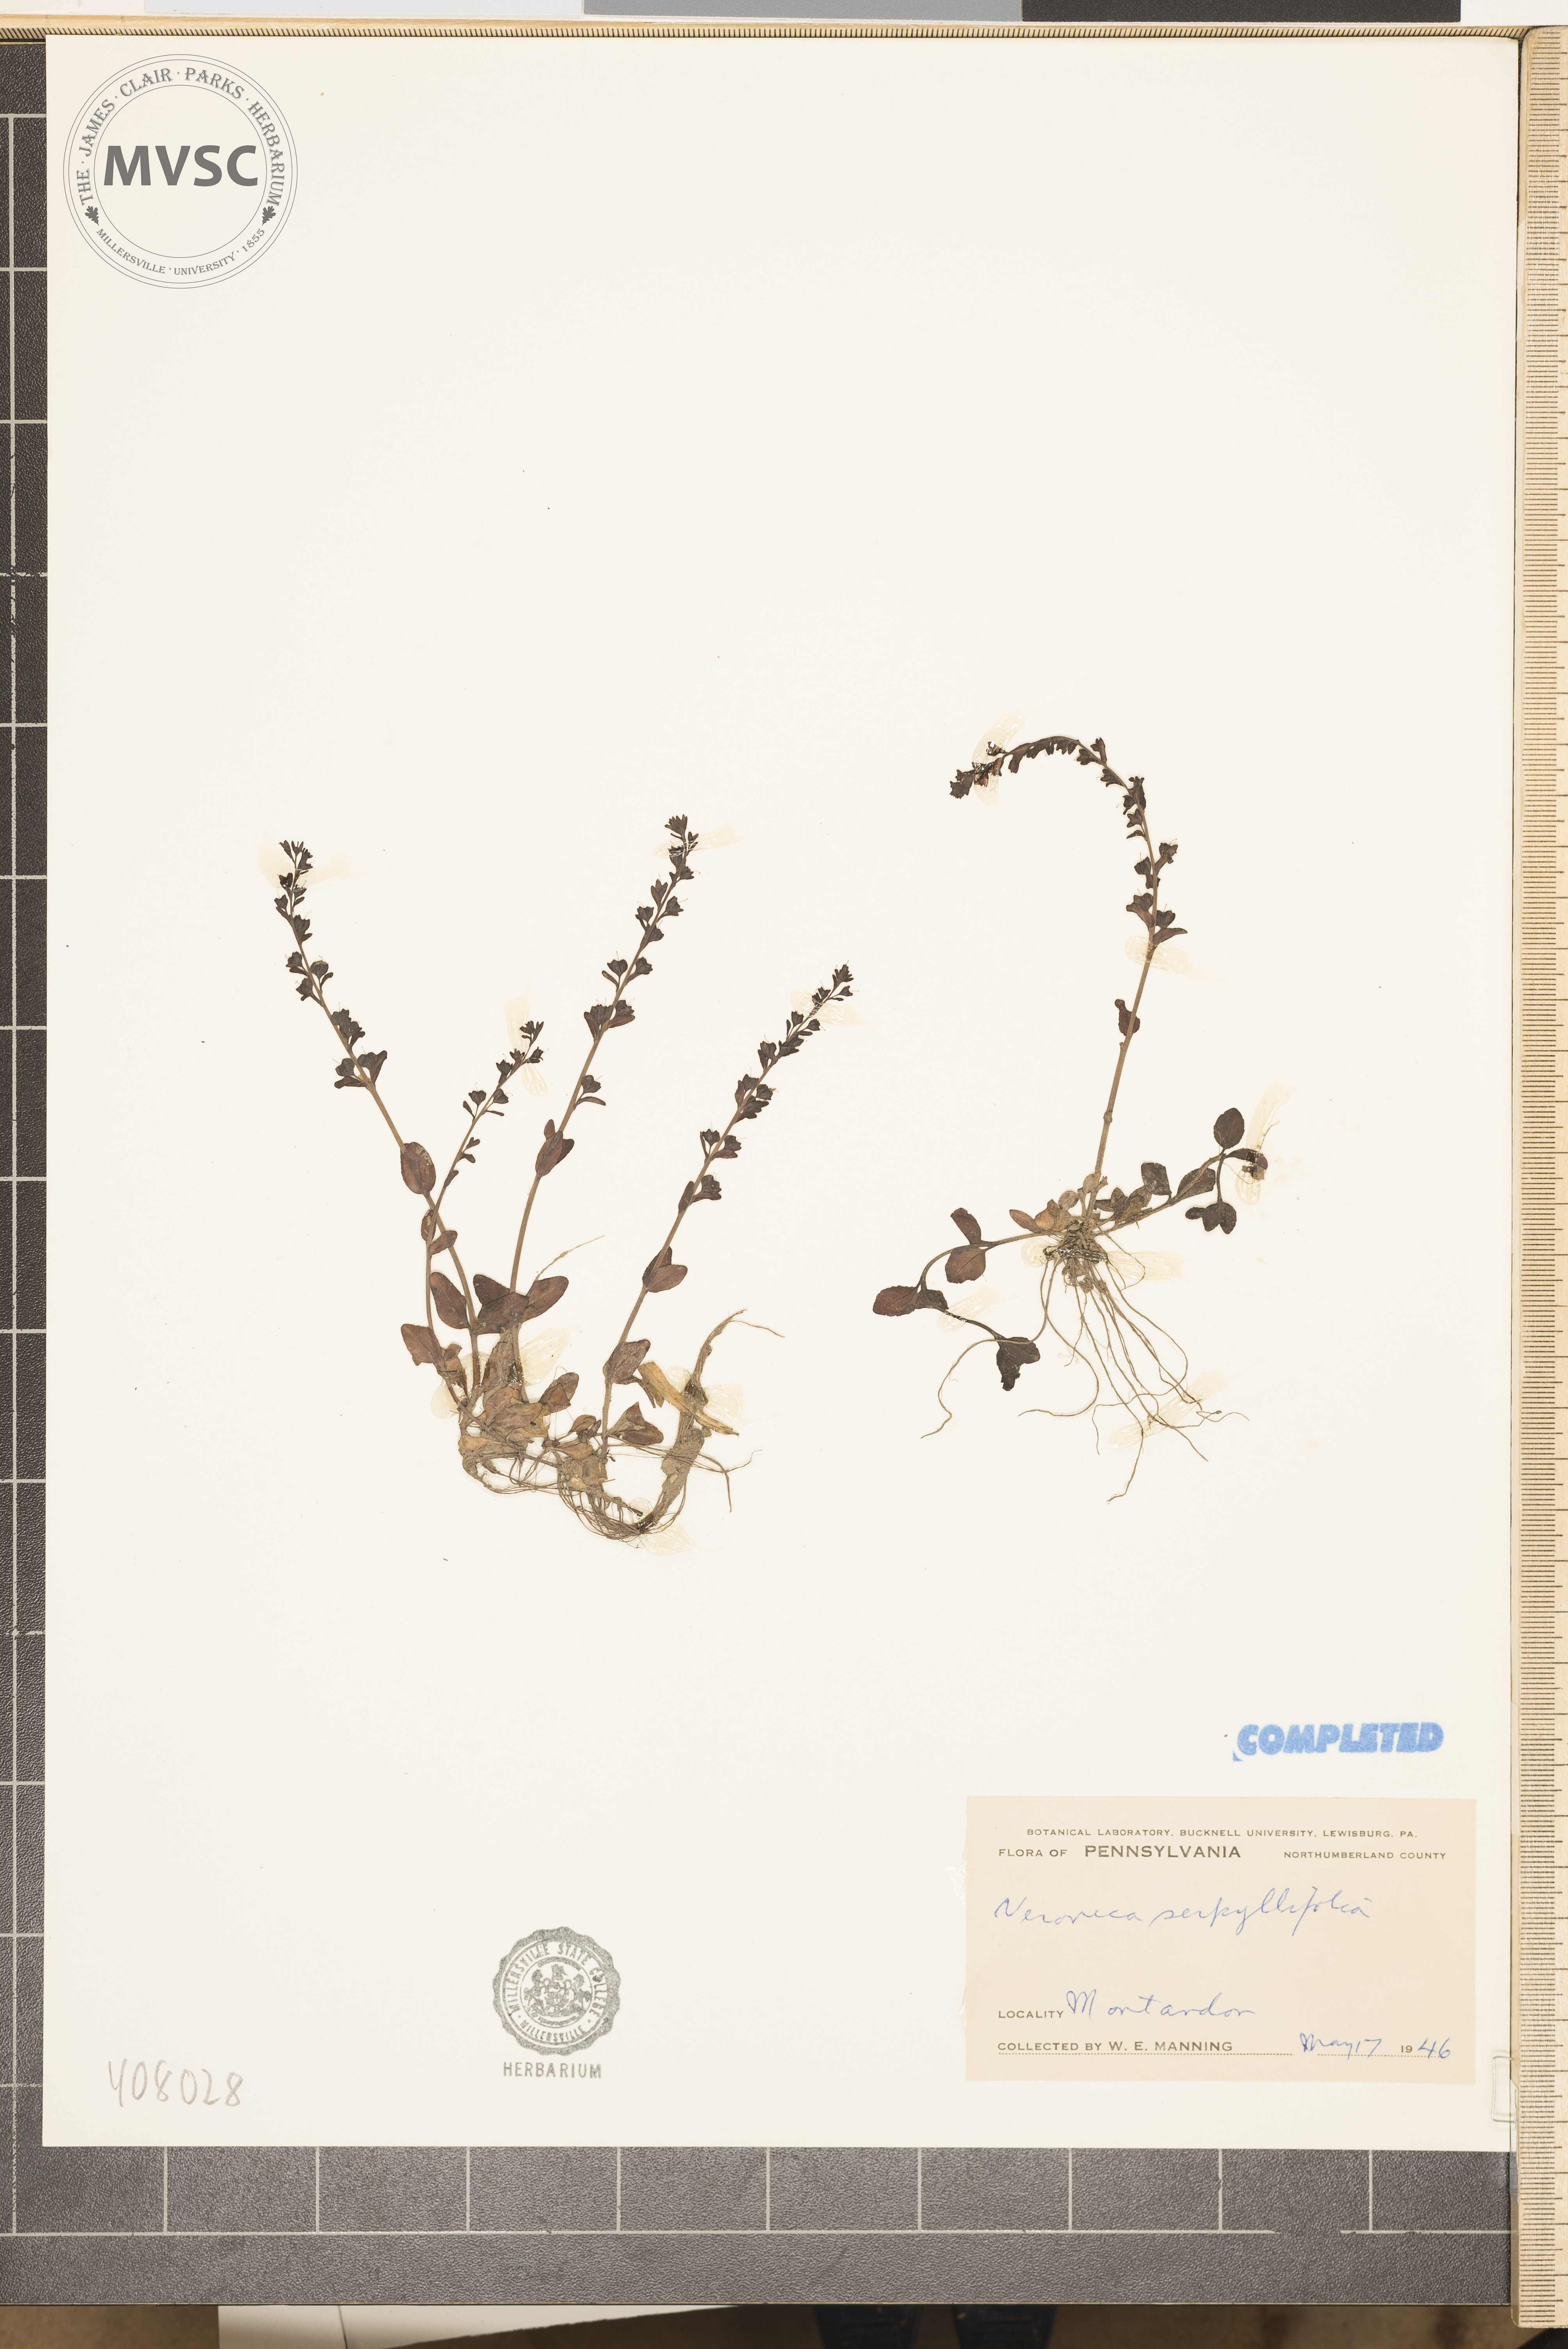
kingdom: Plantae
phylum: Tracheophyta
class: Magnoliopsida
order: Lamiales
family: Plantaginaceae
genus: Veronica
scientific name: Veronica serpyllifolia
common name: Thyme-leaved speedwell
